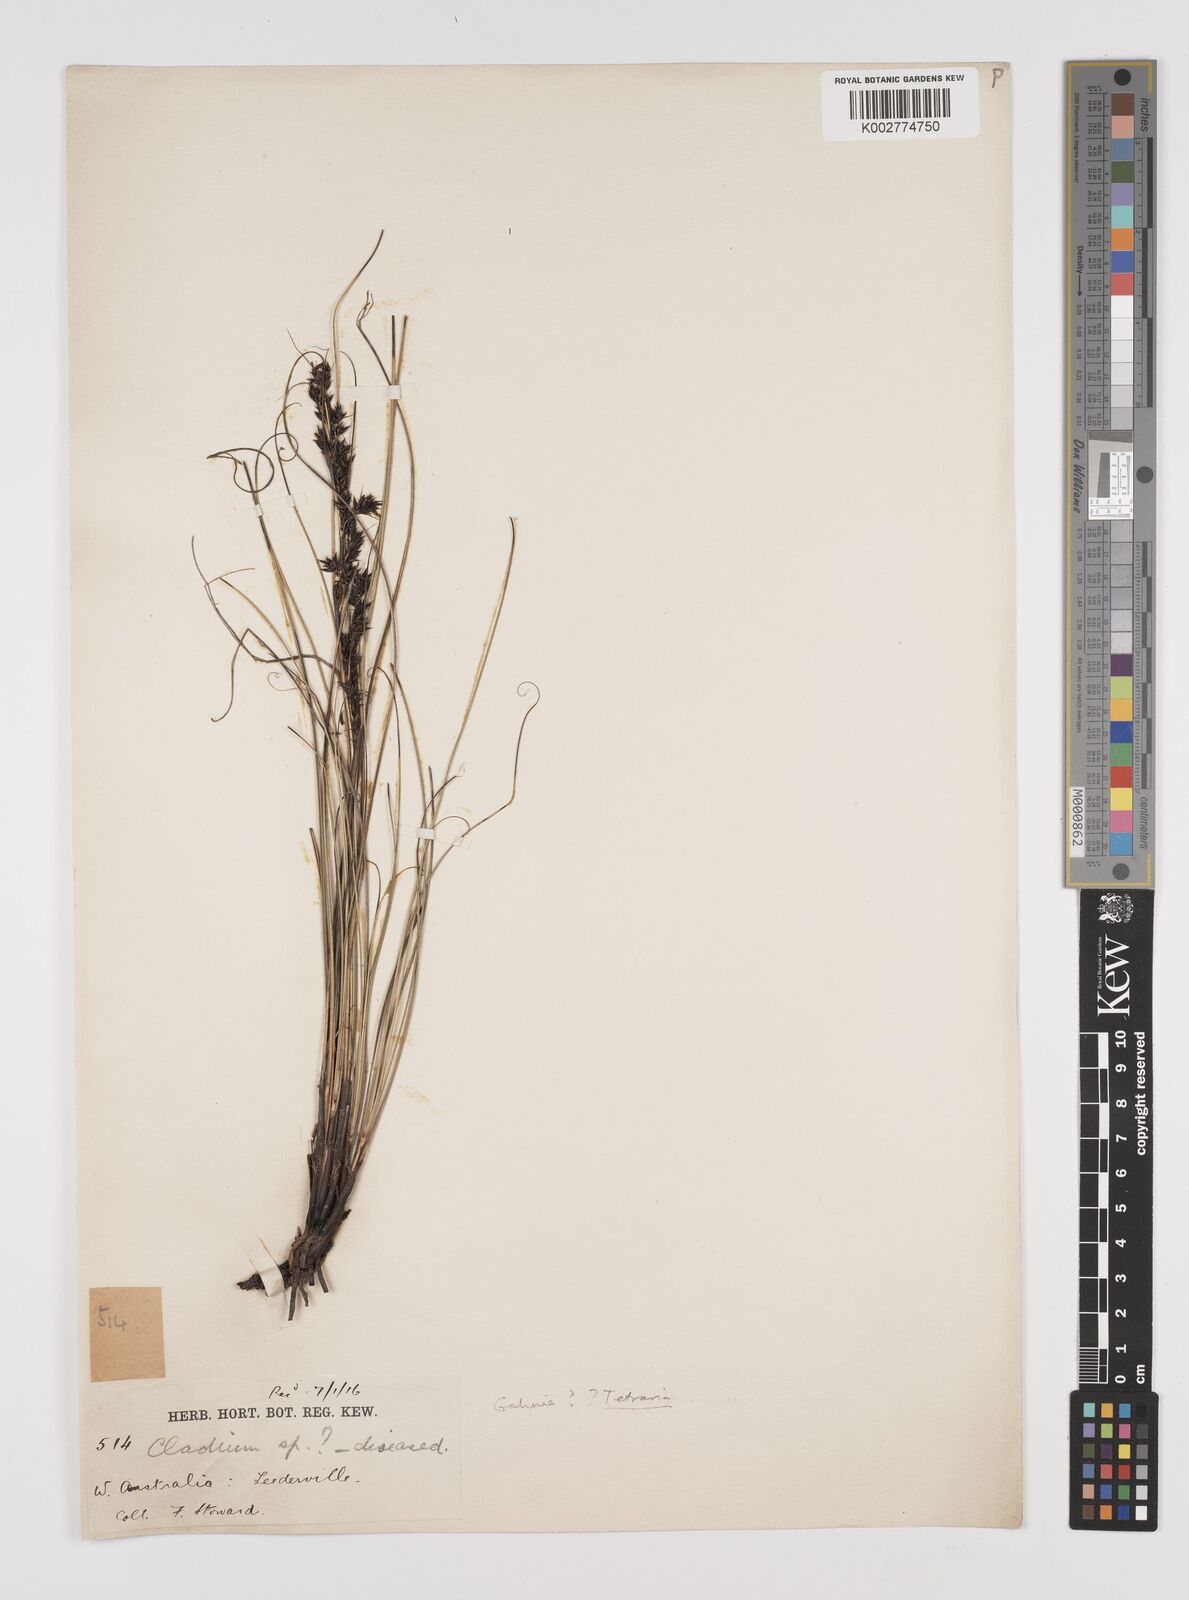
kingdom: Plantae
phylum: Tracheophyta
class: Liliopsida
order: Poales
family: Cyperaceae
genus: Gahnia
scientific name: Gahnia
